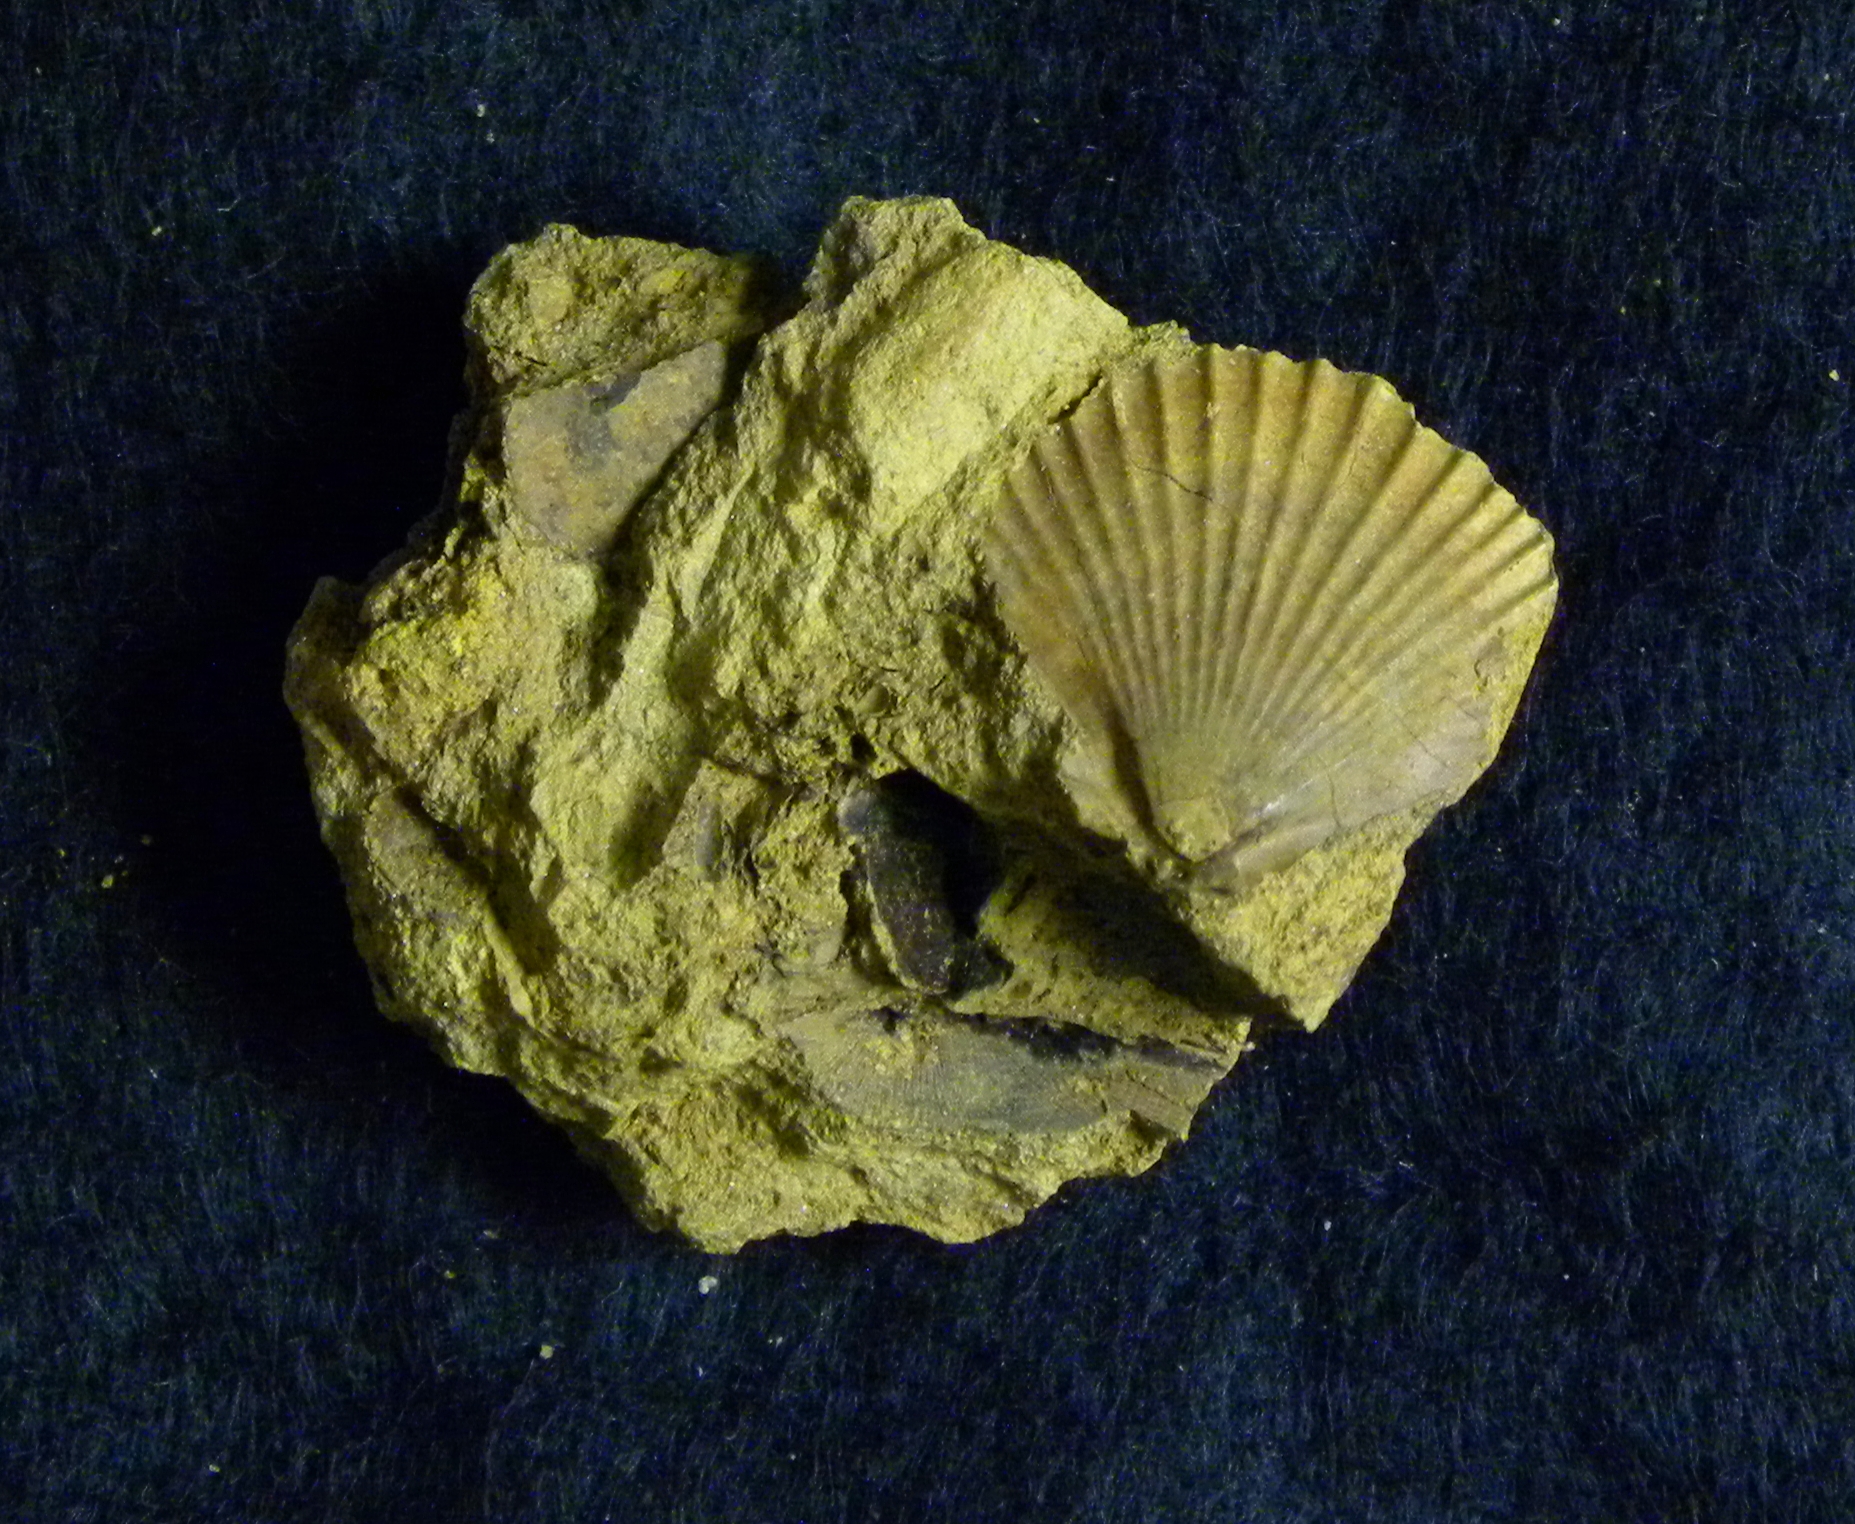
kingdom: Animalia
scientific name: Animalia
